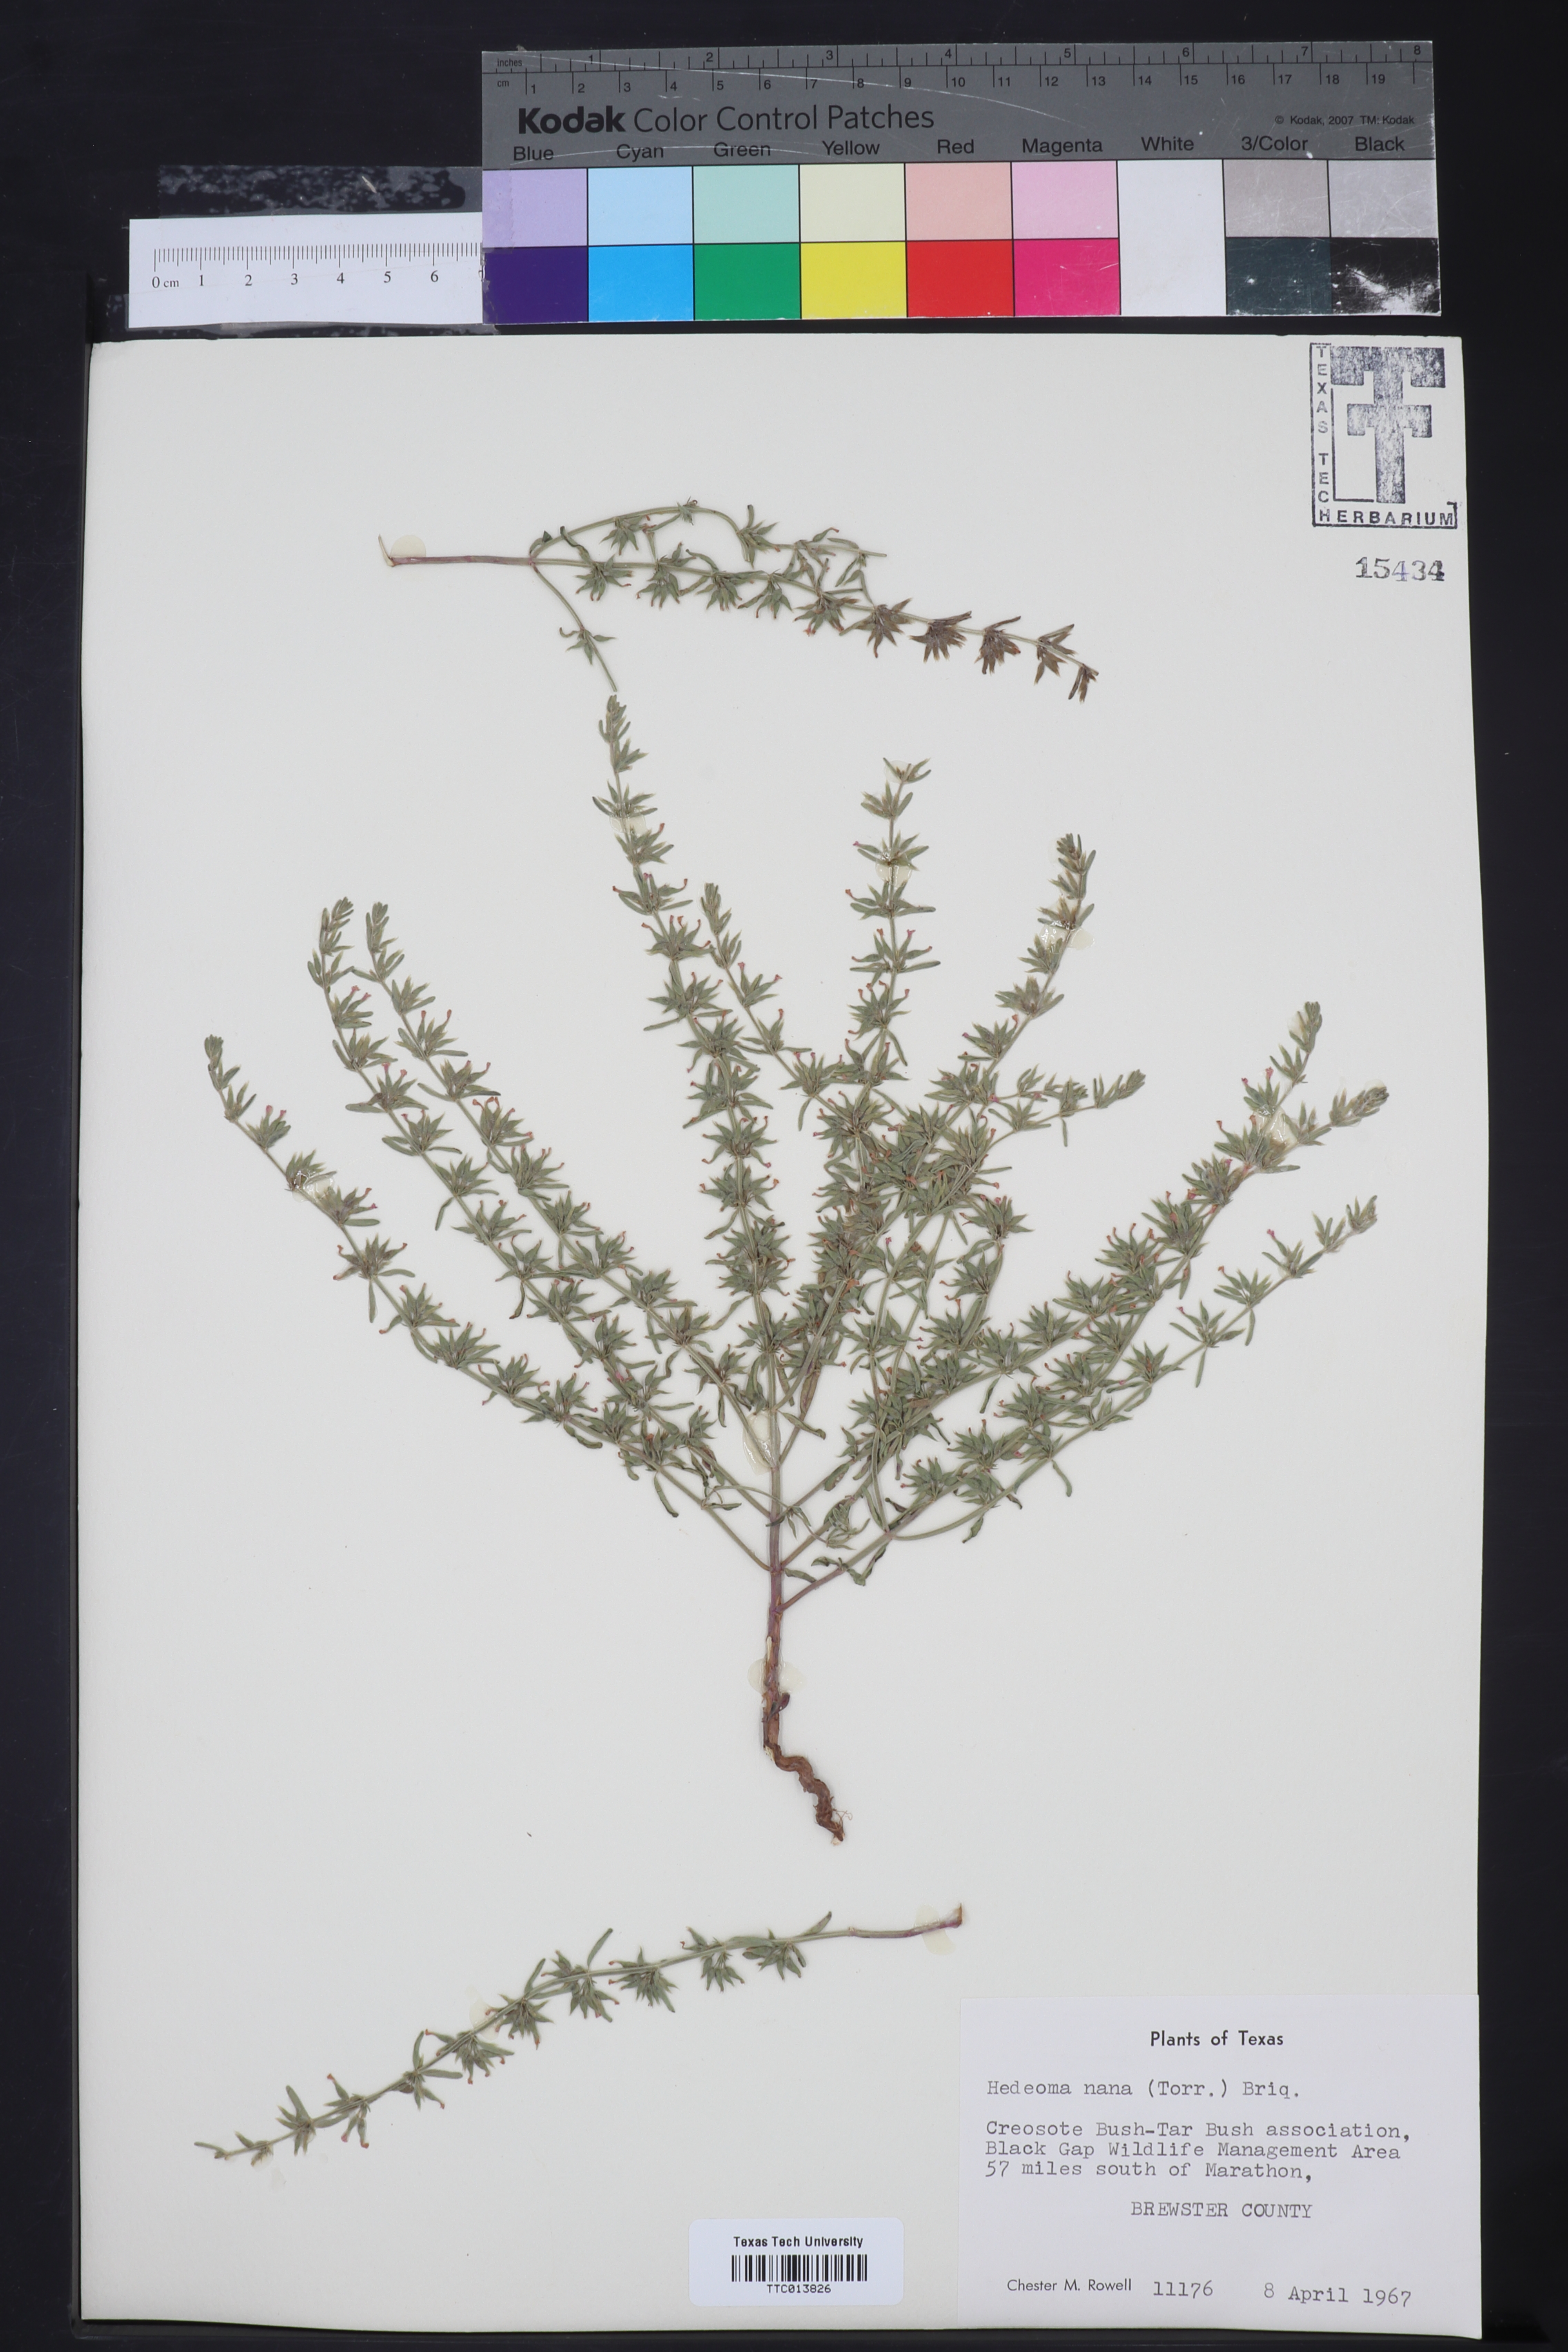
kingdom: Plantae
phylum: Tracheophyta
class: Magnoliopsida
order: Lamiales
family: Lamiaceae
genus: Hedeoma
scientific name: Hedeoma nana
